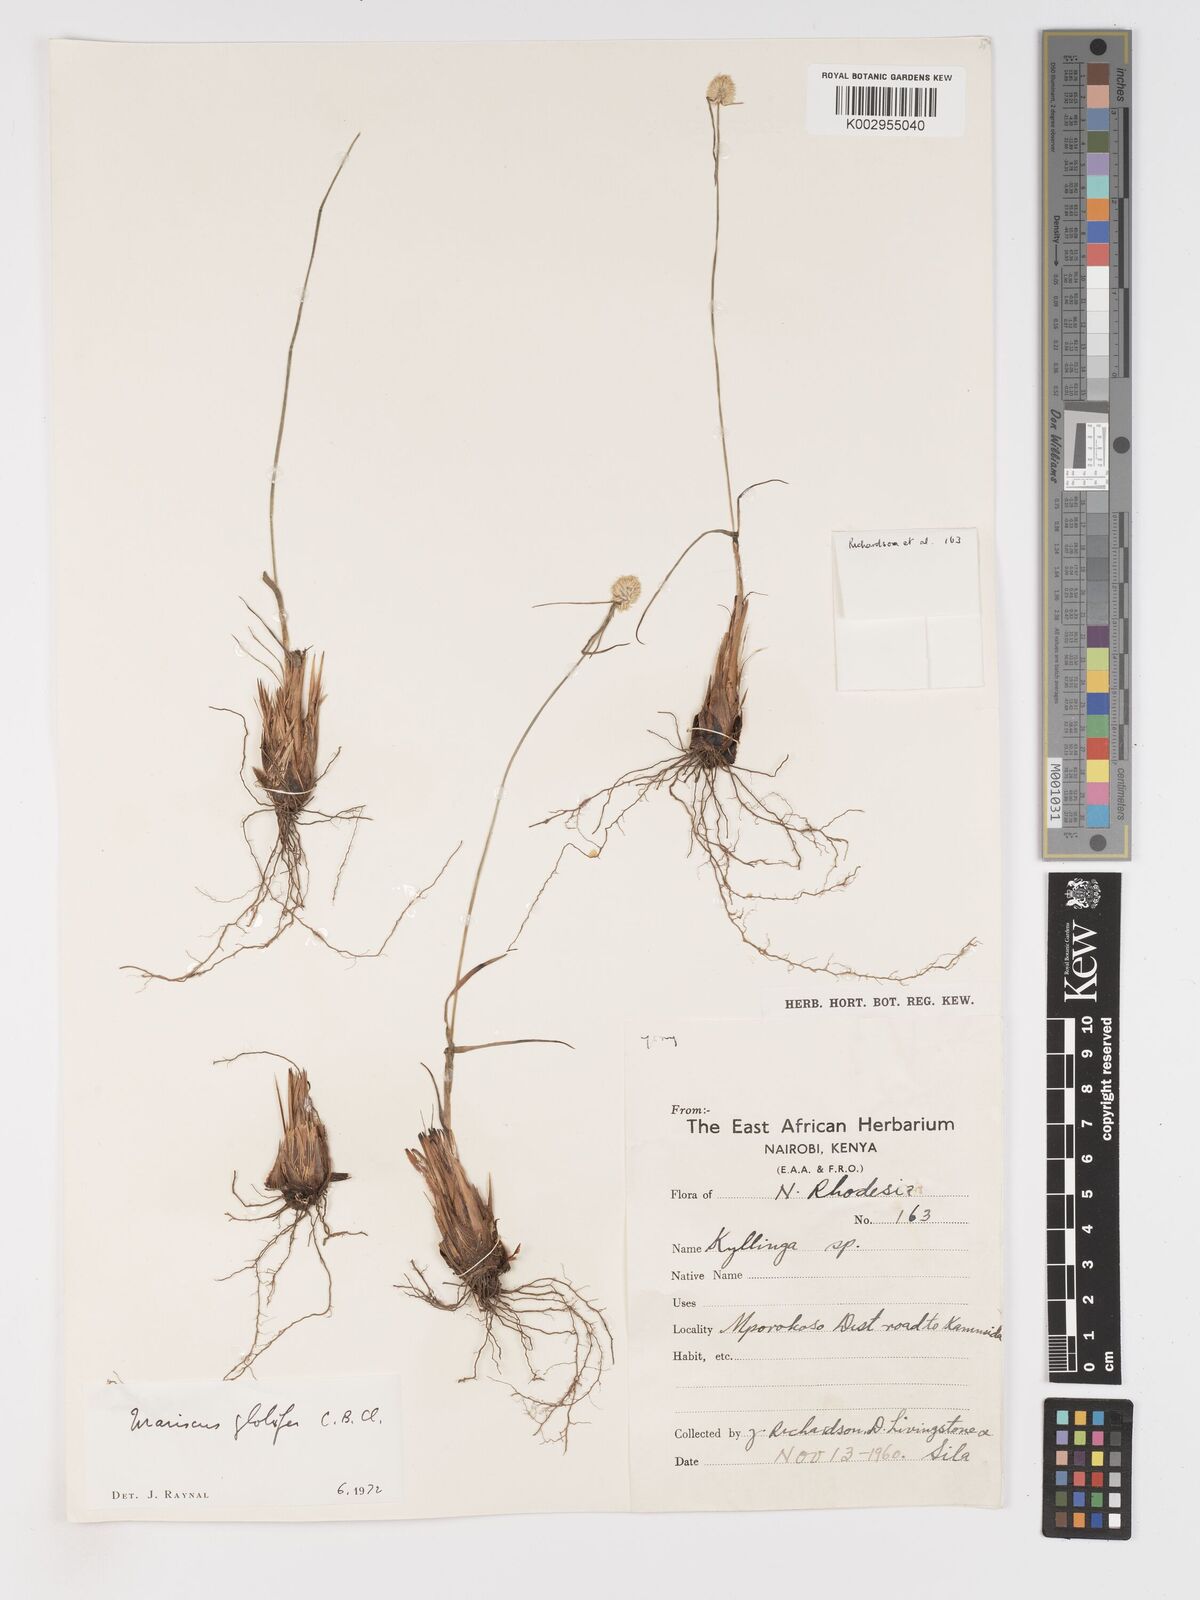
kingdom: Plantae
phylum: Tracheophyta
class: Liliopsida
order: Poales
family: Cyperaceae
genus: Cyperus
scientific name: Cyperus mollipes
